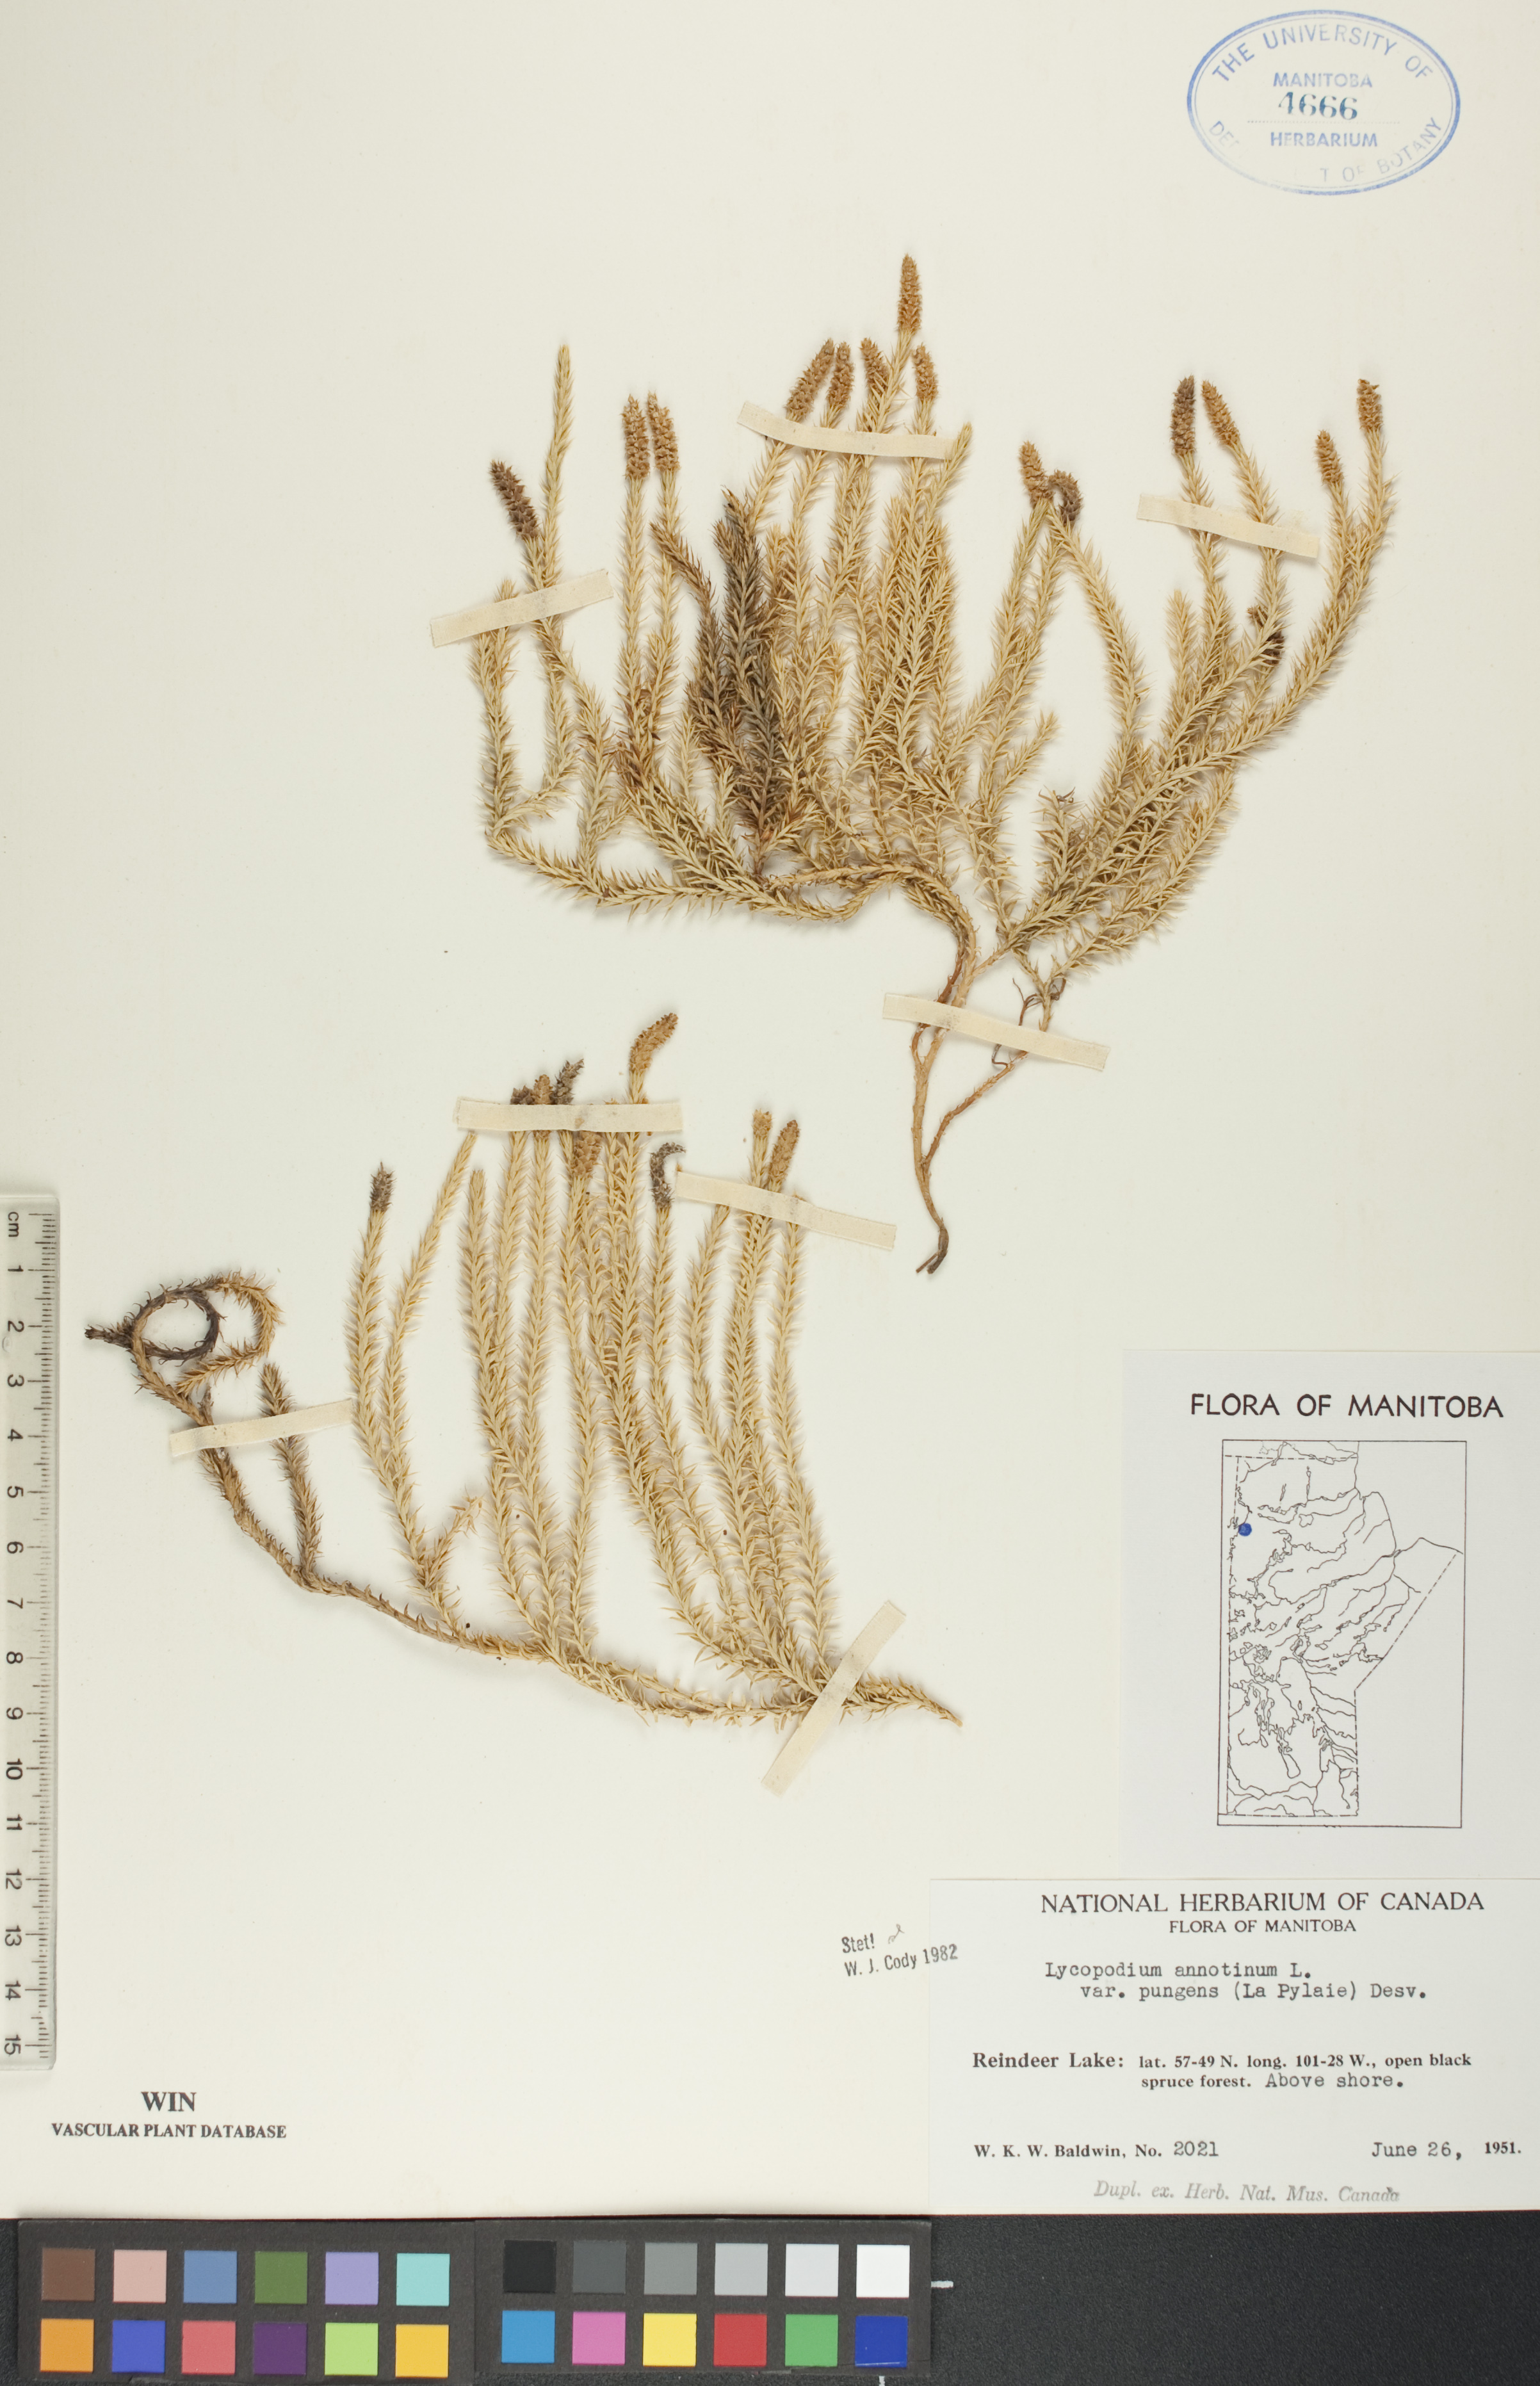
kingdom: Plantae
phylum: Tracheophyta
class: Lycopodiopsida
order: Lycopodiales
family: Lycopodiaceae
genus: Spinulum
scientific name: Spinulum annotinum
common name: Interrupted club-moss
